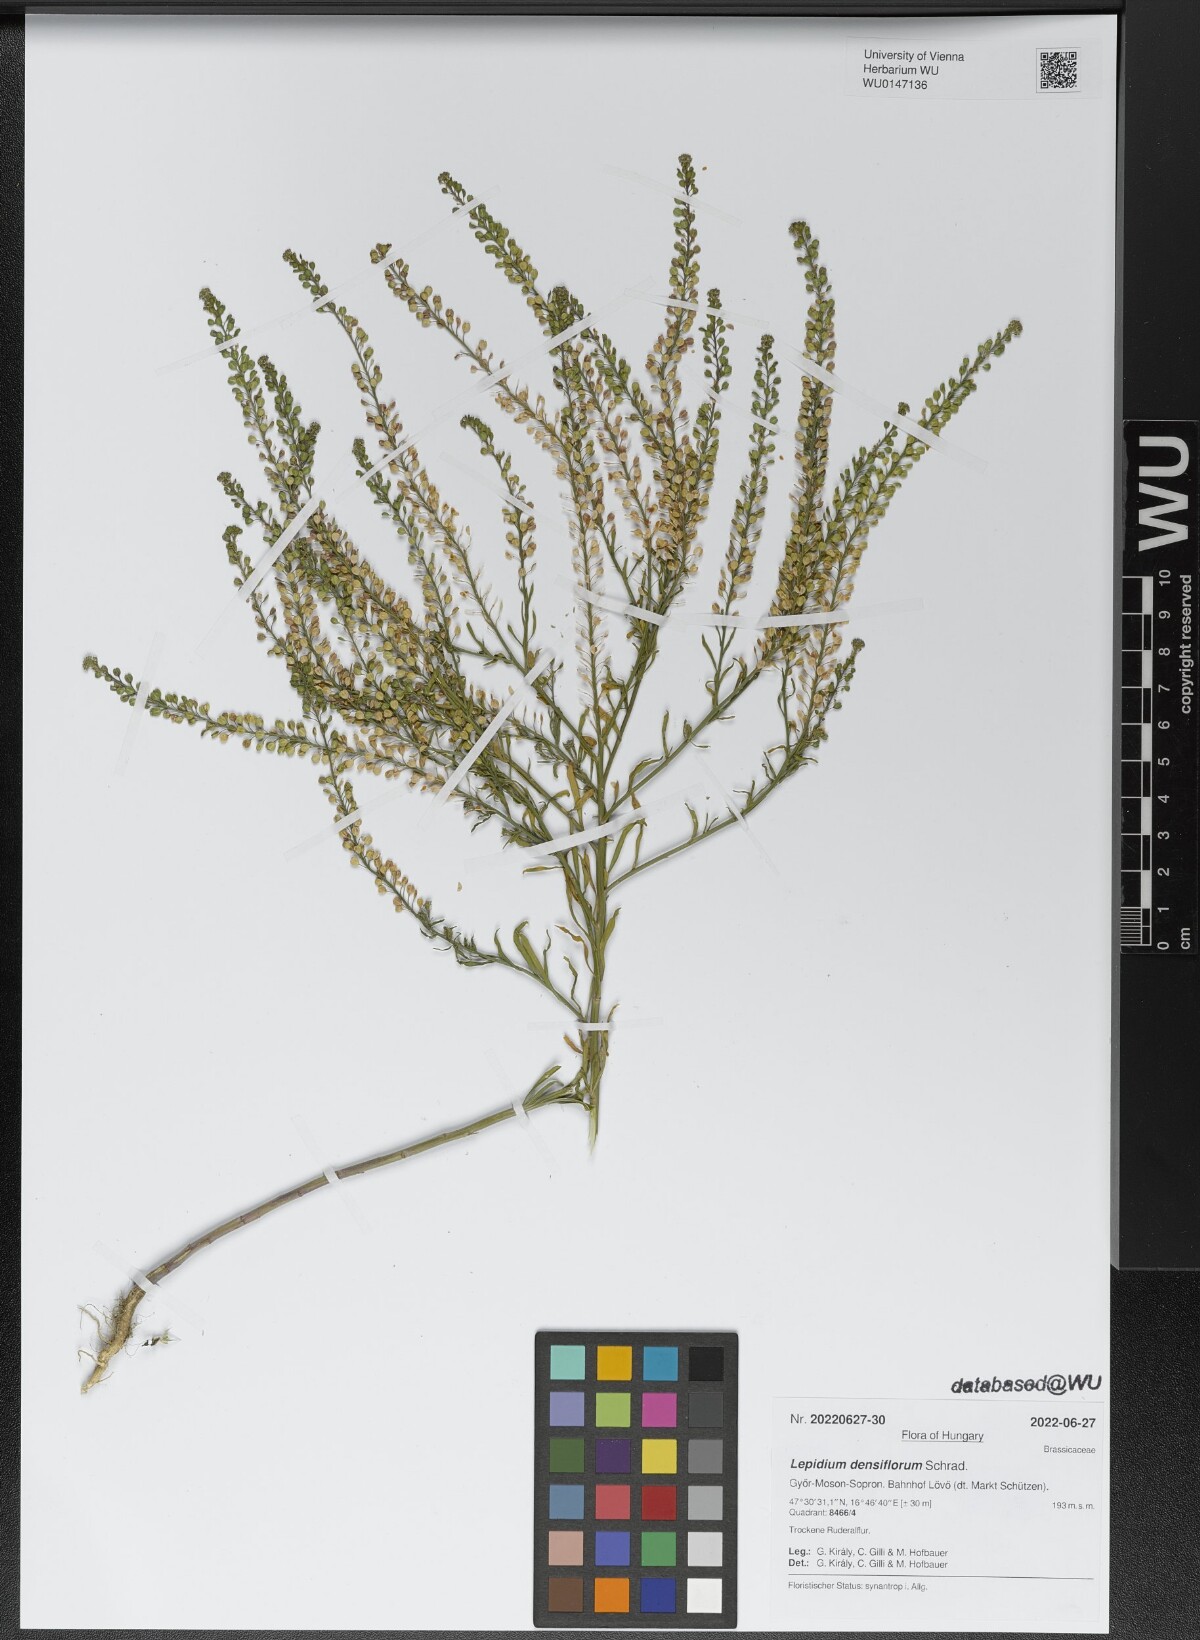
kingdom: Plantae
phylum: Tracheophyta
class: Magnoliopsida
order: Brassicales
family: Brassicaceae
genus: Lepidium
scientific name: Lepidium densiflorum
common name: Miner's pepperwort
